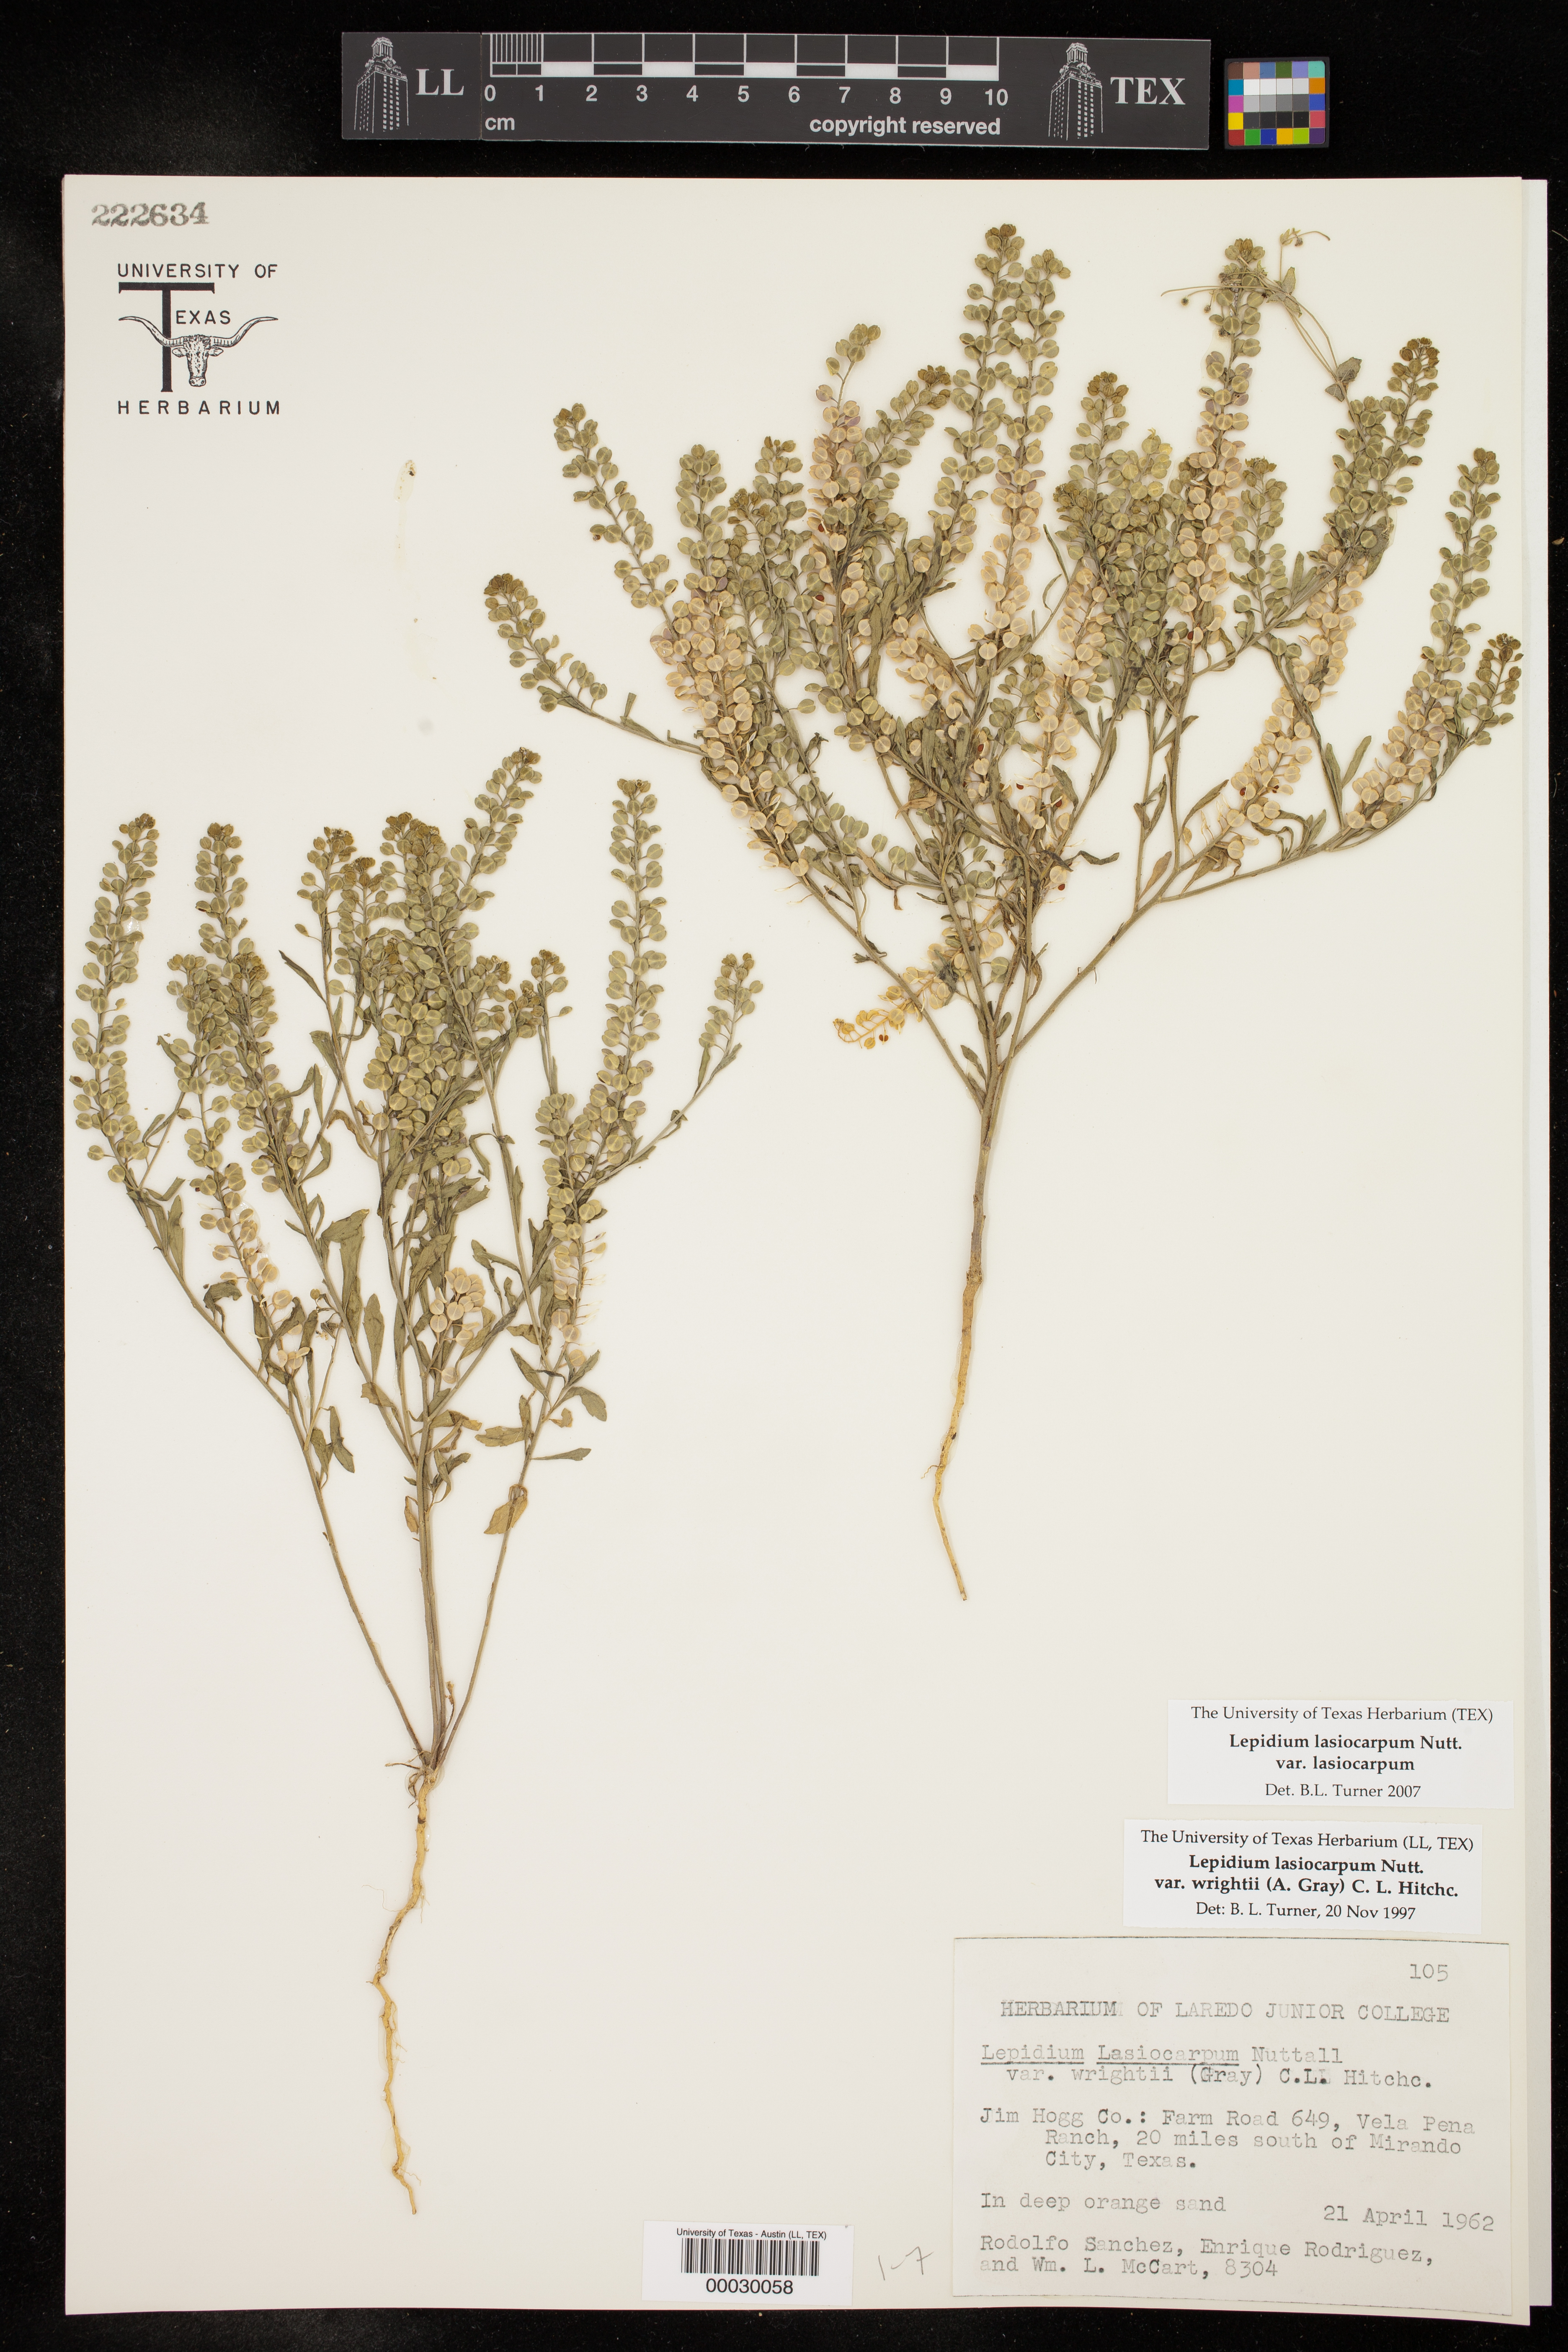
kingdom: Plantae
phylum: Tracheophyta
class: Magnoliopsida
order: Brassicales
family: Brassicaceae
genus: Lepidium
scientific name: Lepidium lasiocarpum
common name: Hairy-pod pepperwort
